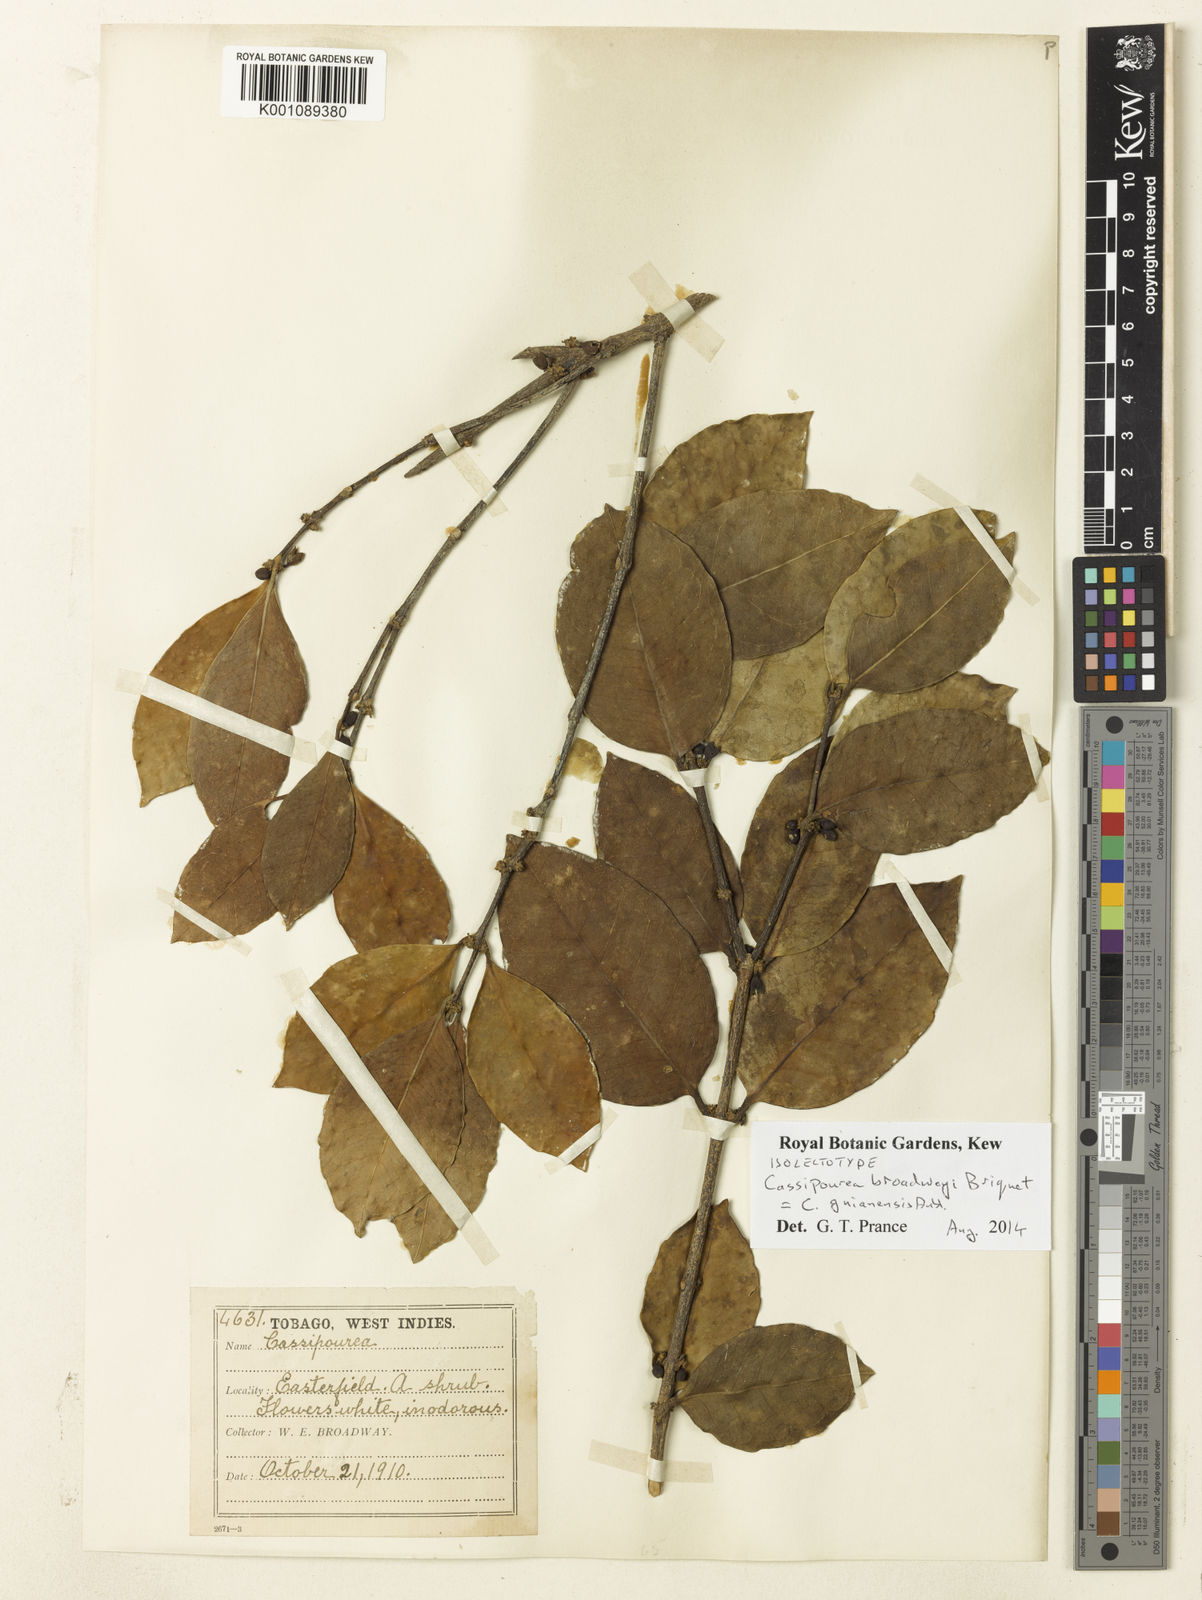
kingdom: Plantae
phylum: Tracheophyta
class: Magnoliopsida
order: Malpighiales
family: Rhizophoraceae
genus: Cassipourea
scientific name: Cassipourea guianensis
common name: Bastard waterwood
